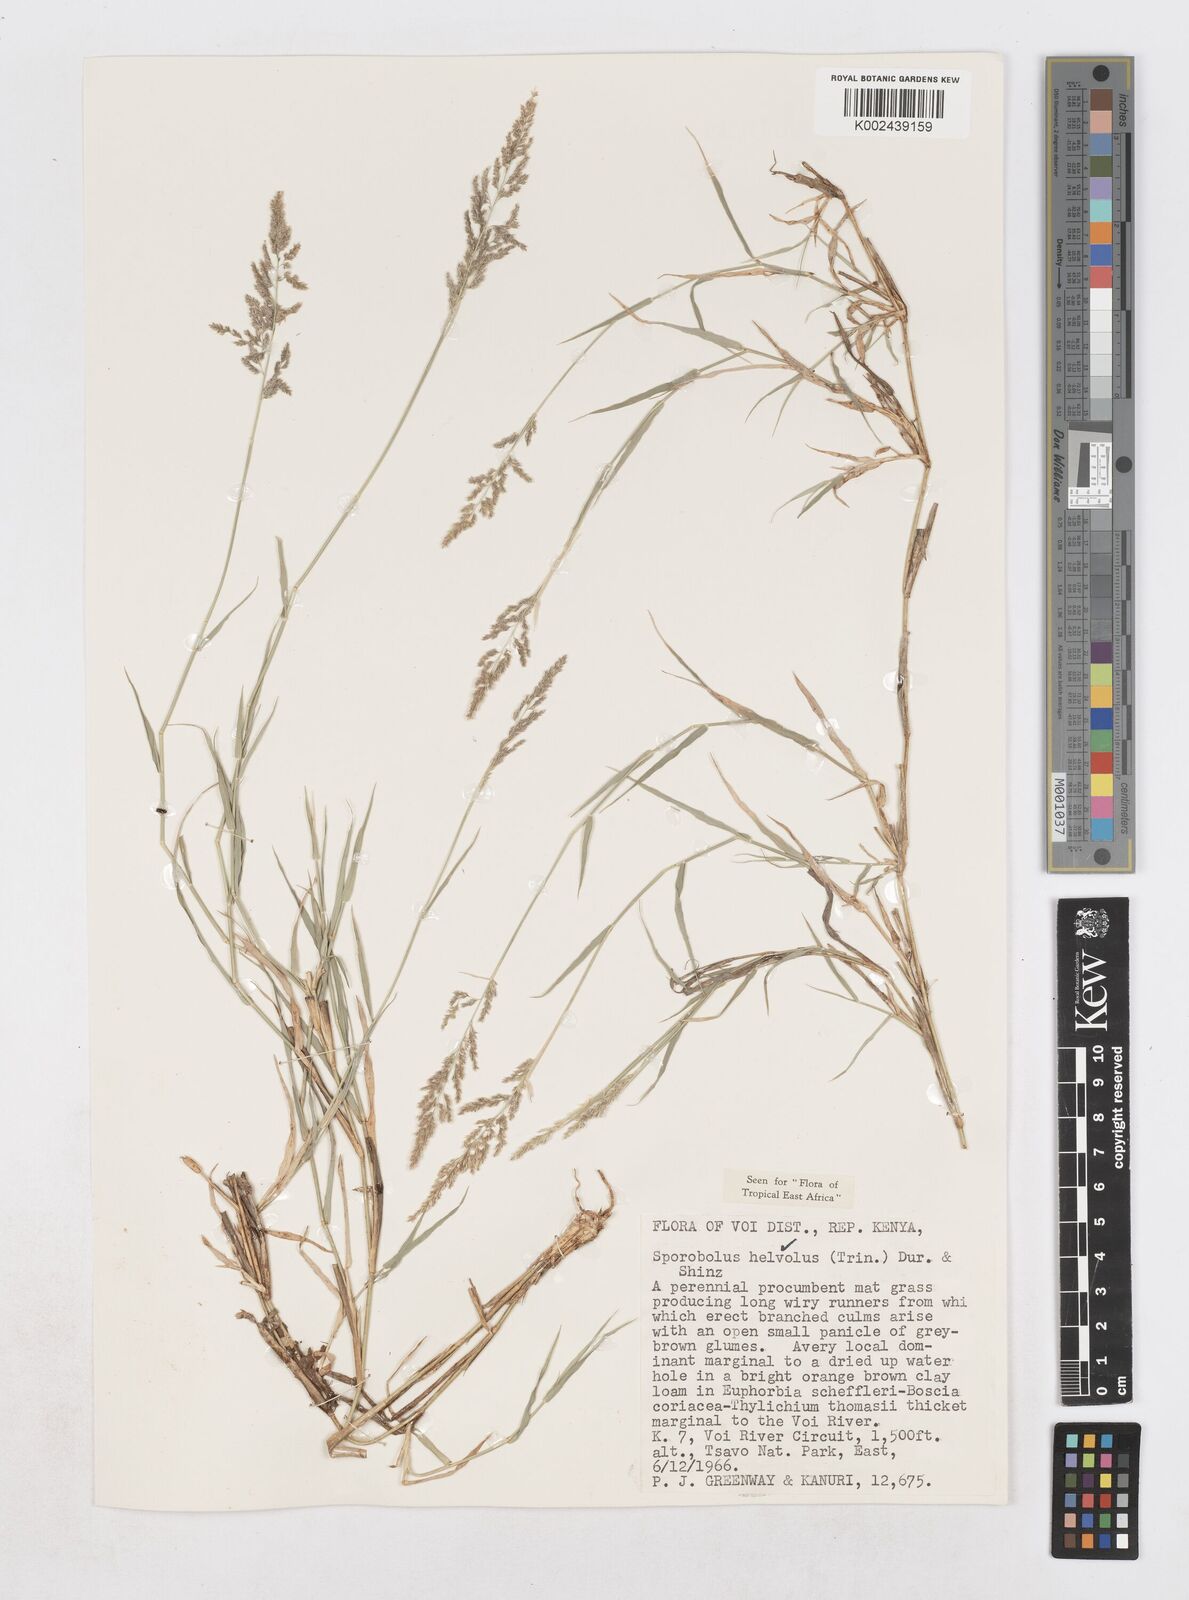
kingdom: Plantae
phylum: Tracheophyta
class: Liliopsida
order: Poales
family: Poaceae
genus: Sporobolus
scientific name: Sporobolus helvolus
